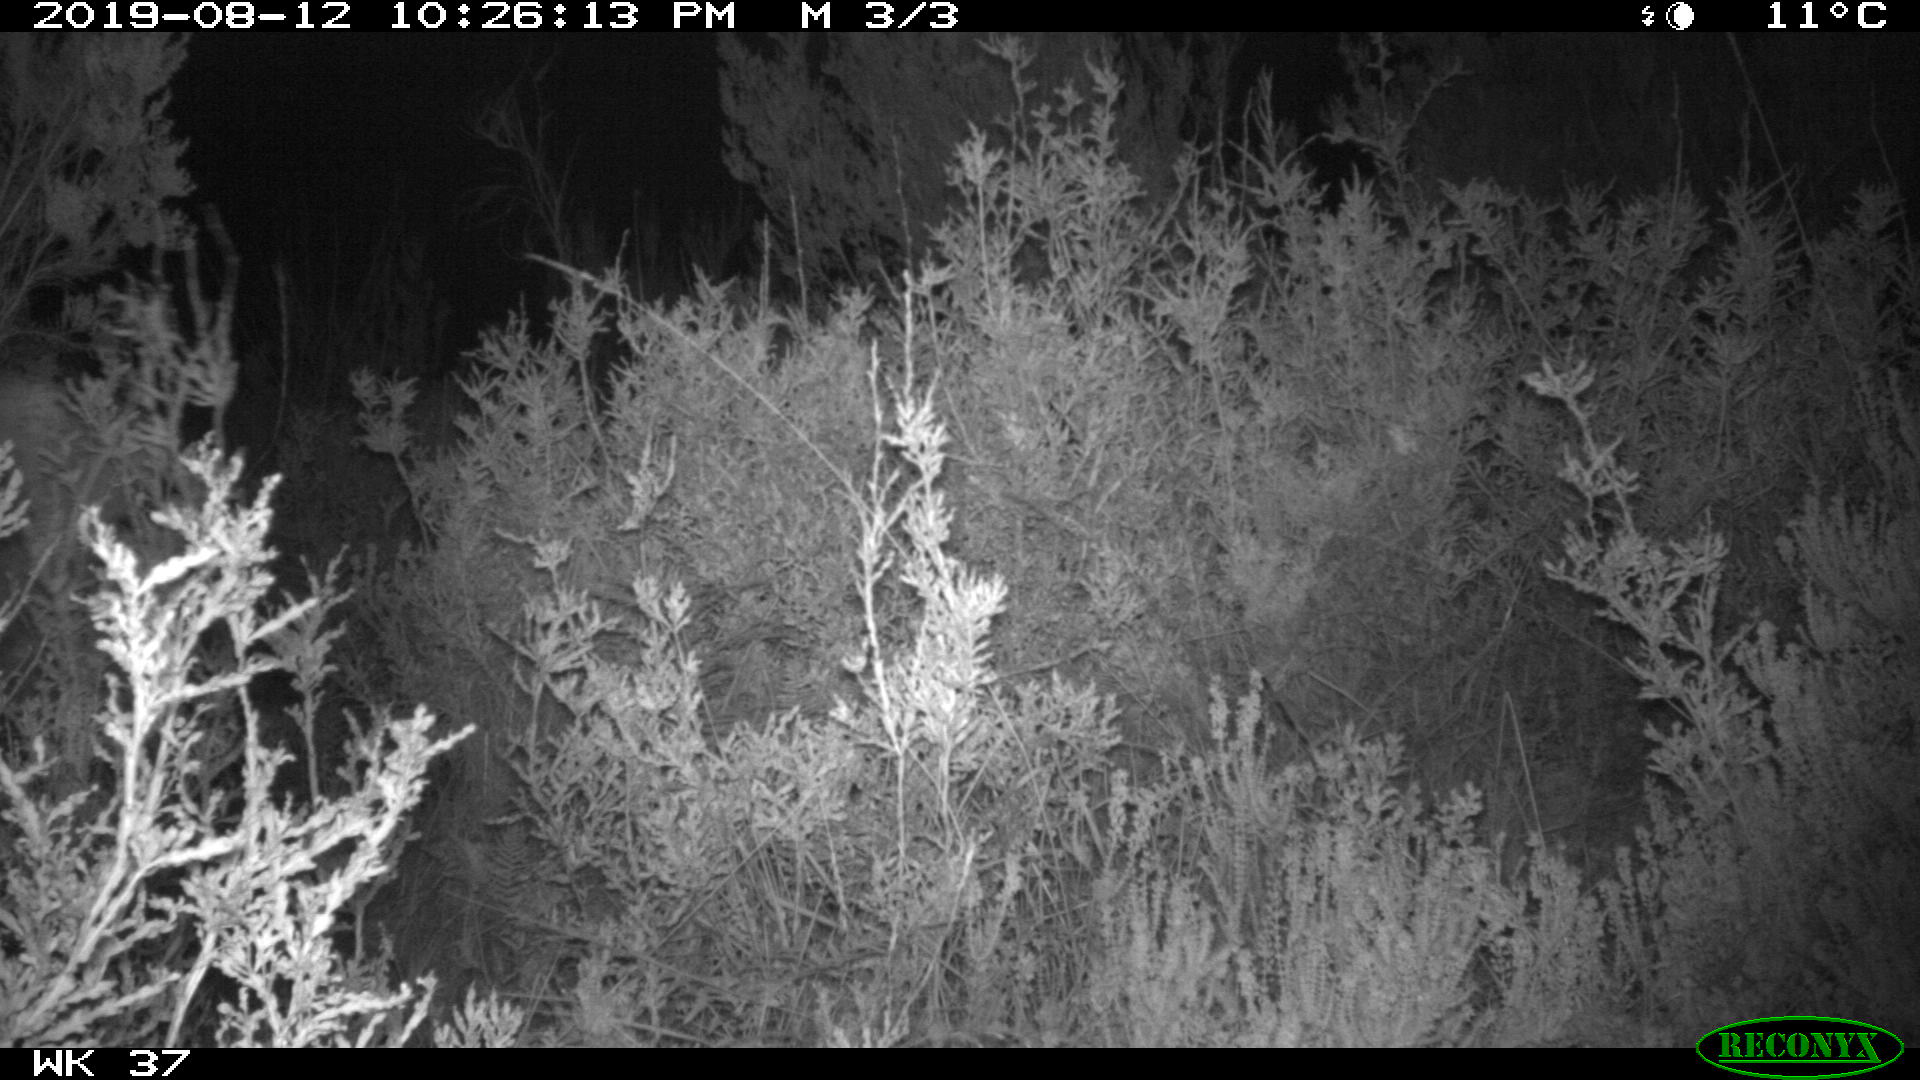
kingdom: Animalia
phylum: Chordata
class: Mammalia
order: Artiodactyla
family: Cervidae
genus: Capreolus
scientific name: Capreolus capreolus
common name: Western roe deer
